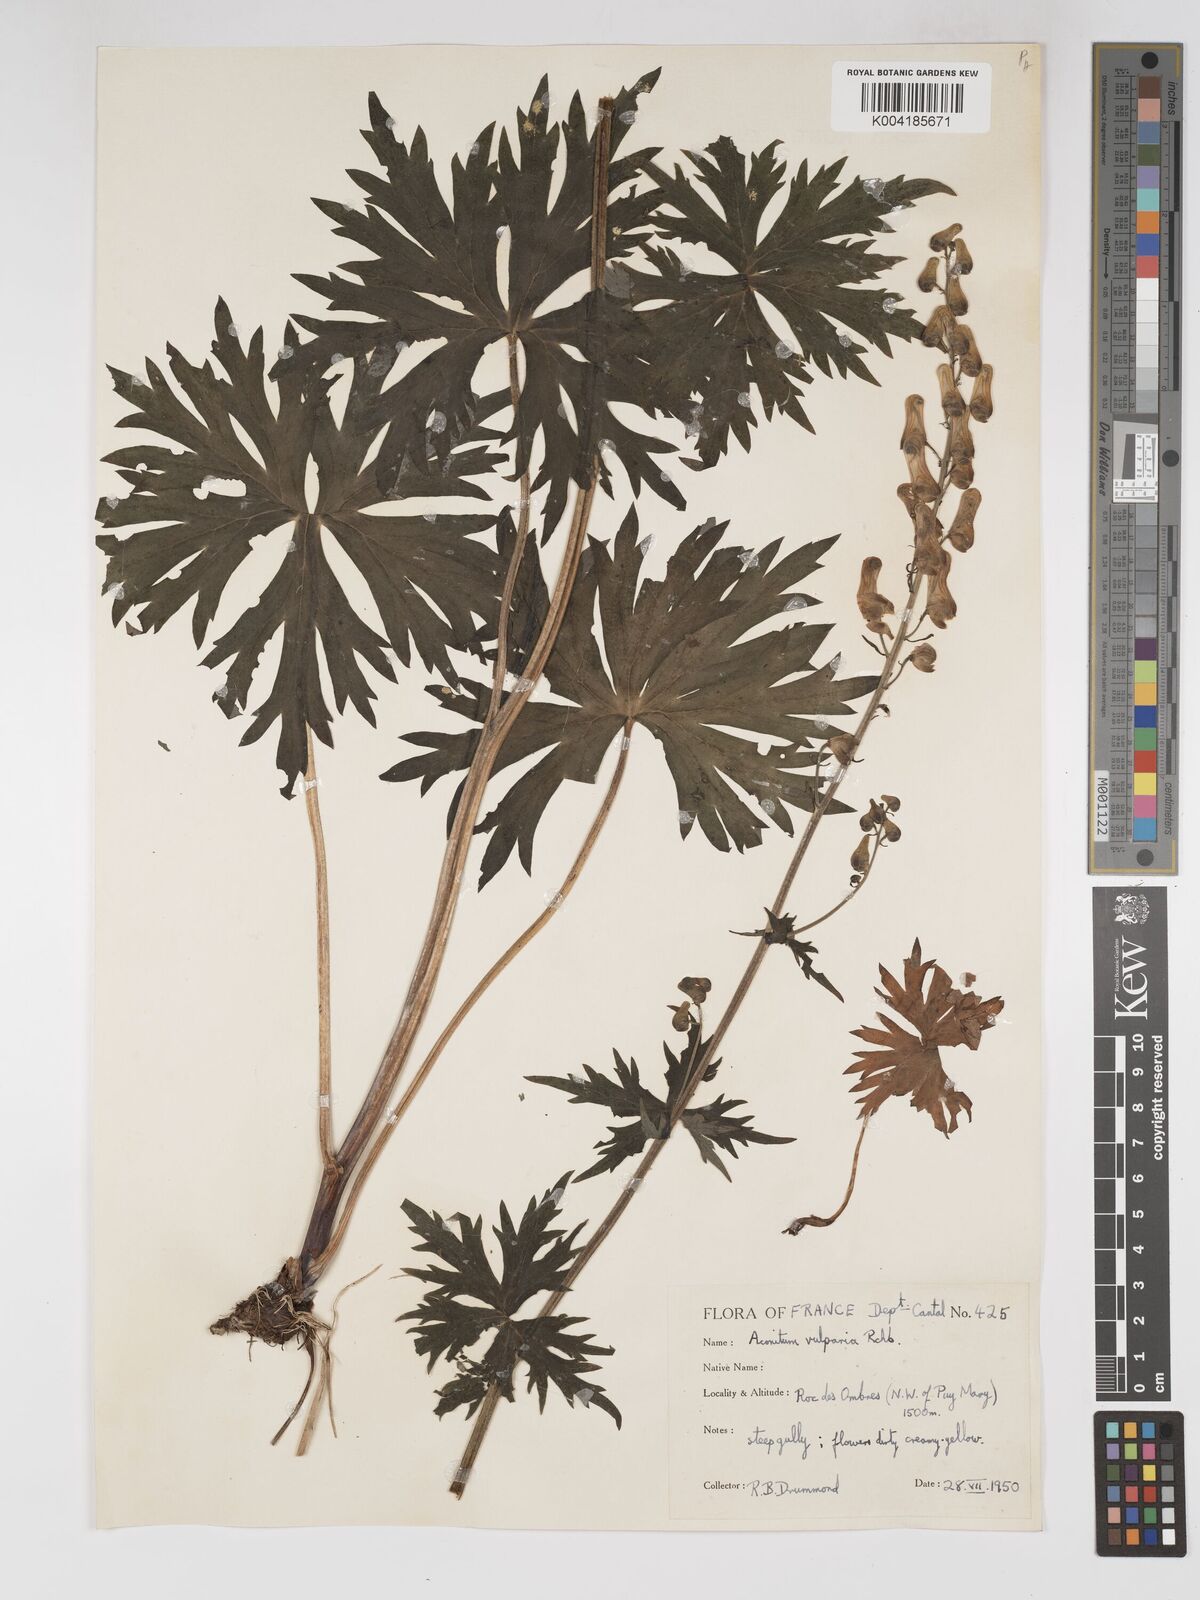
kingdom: Plantae
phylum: Tracheophyta
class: Magnoliopsida
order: Ranunculales
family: Ranunculaceae
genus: Aconitum
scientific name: Aconitum lycoctonum
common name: Wolf's-bane
